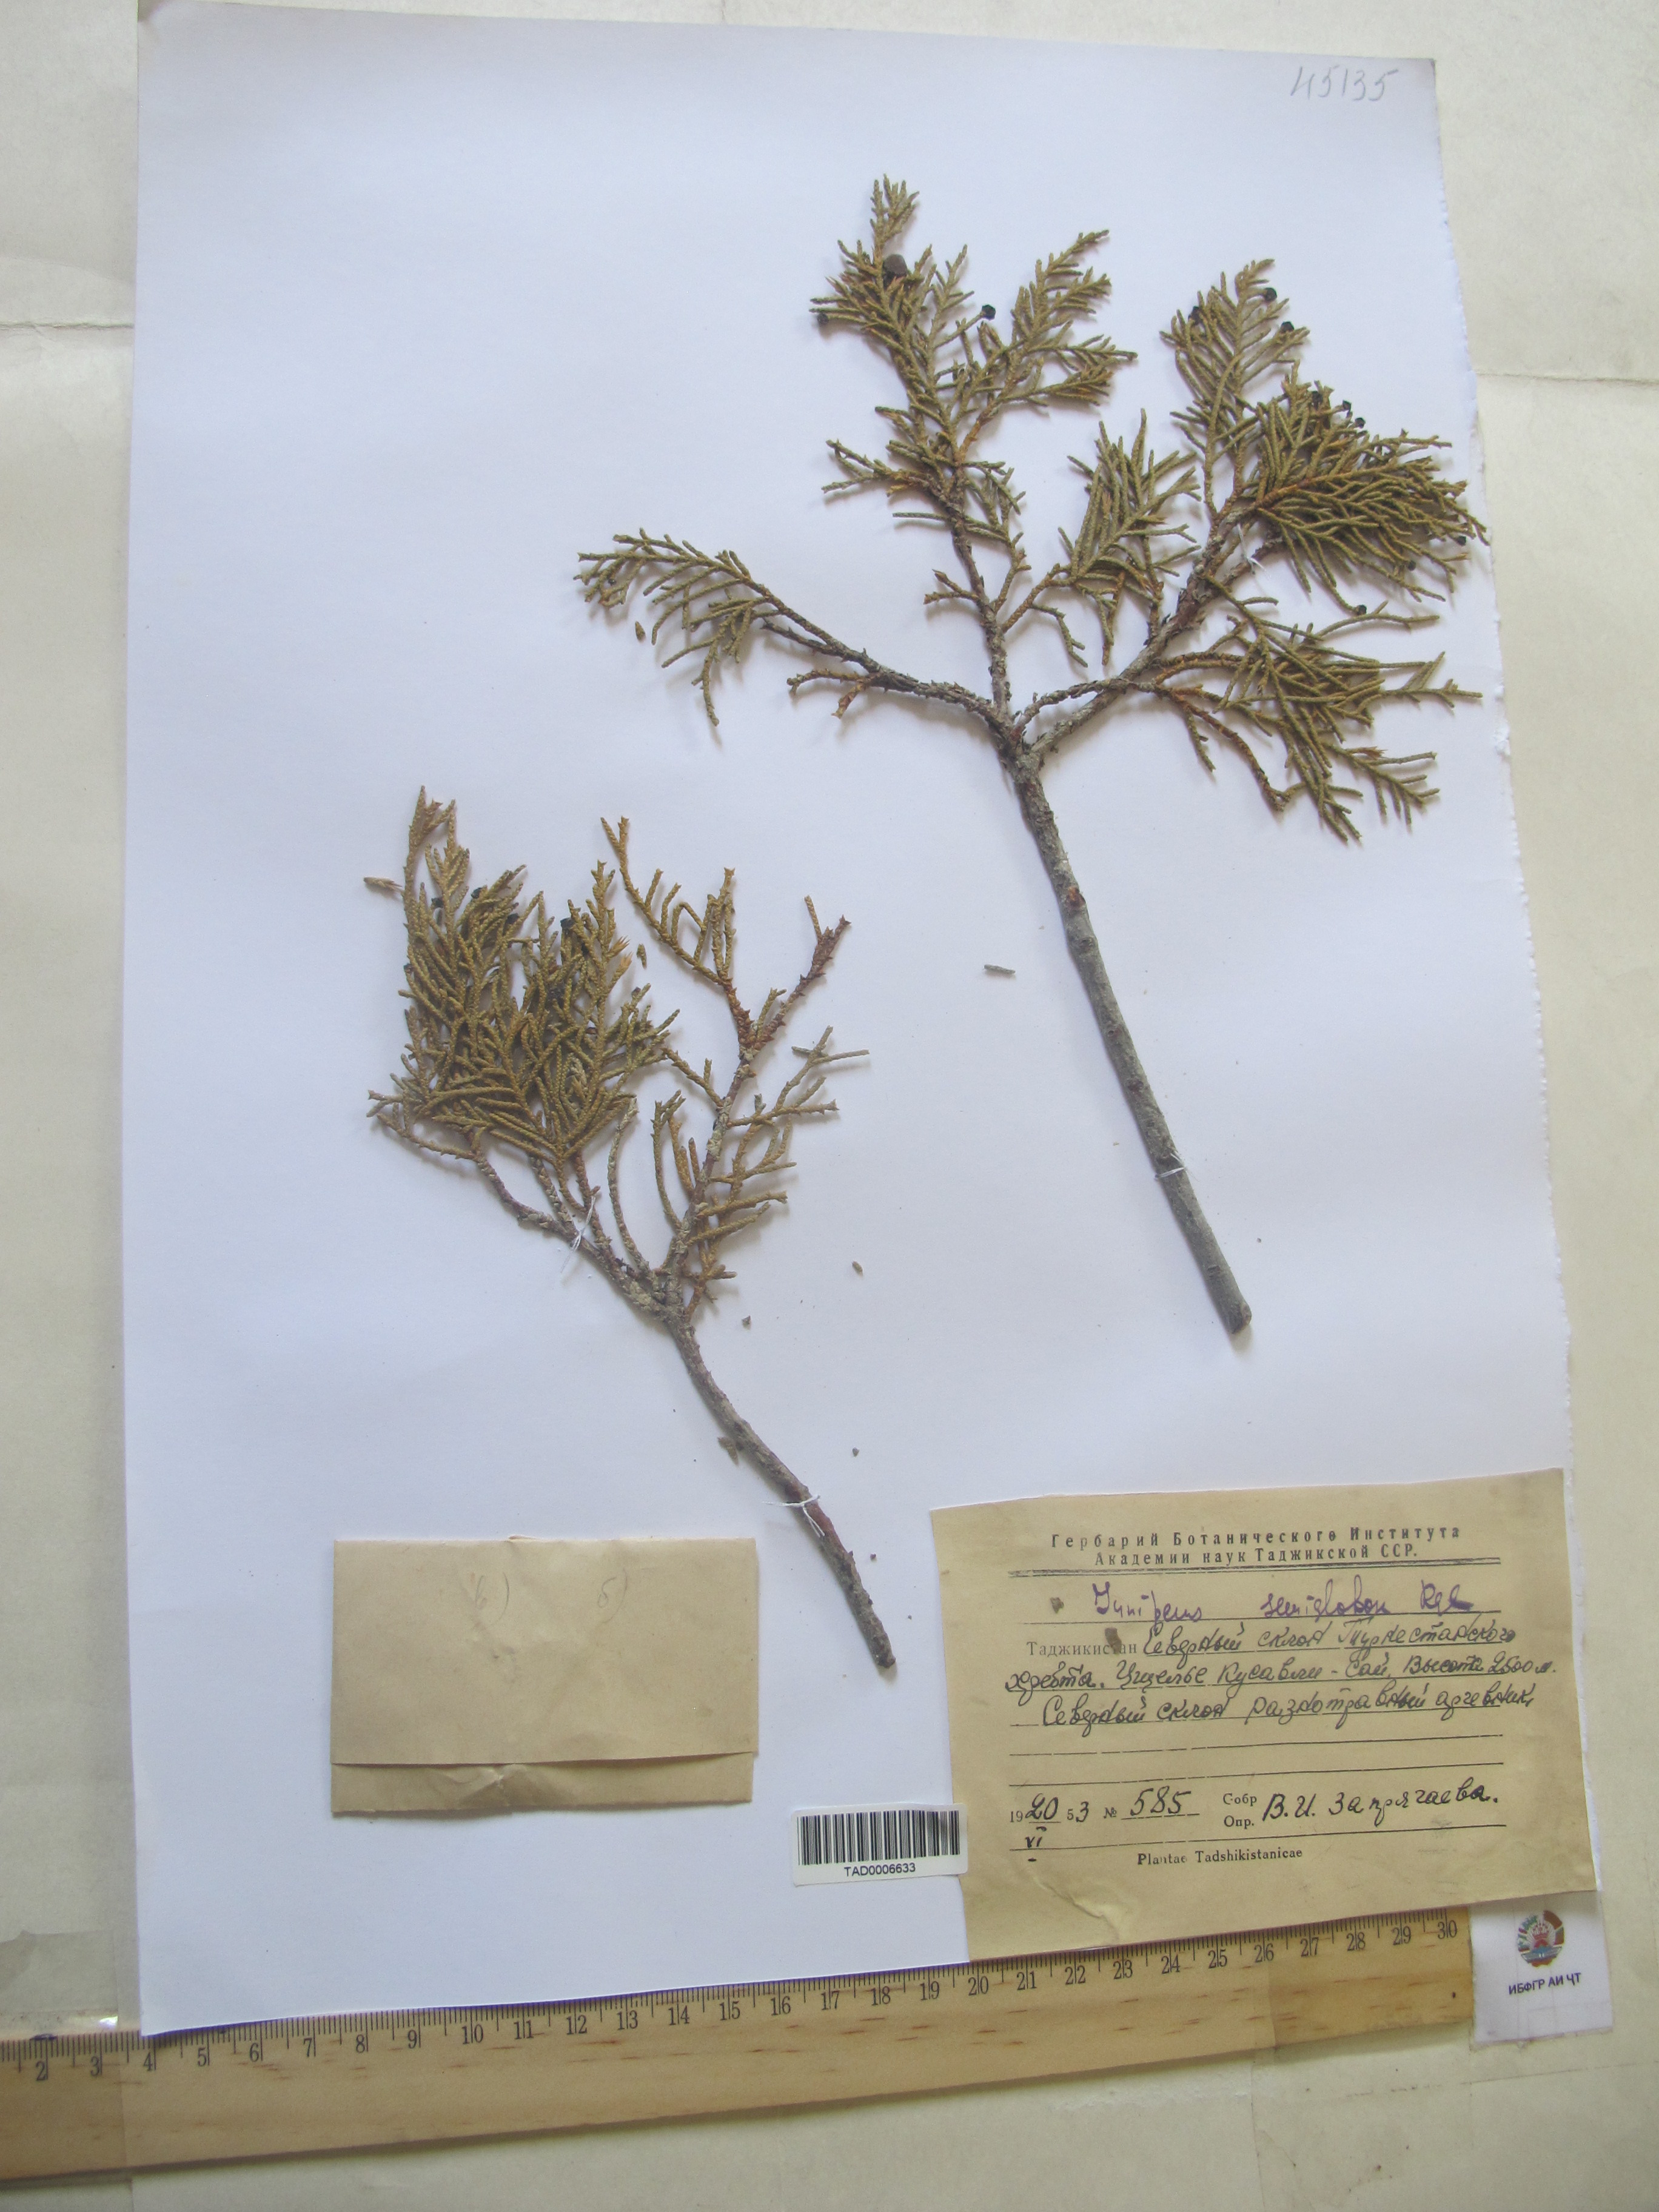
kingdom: Plantae
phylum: Tracheophyta
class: Pinopsida
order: Pinales
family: Cupressaceae
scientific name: Cupressaceae
